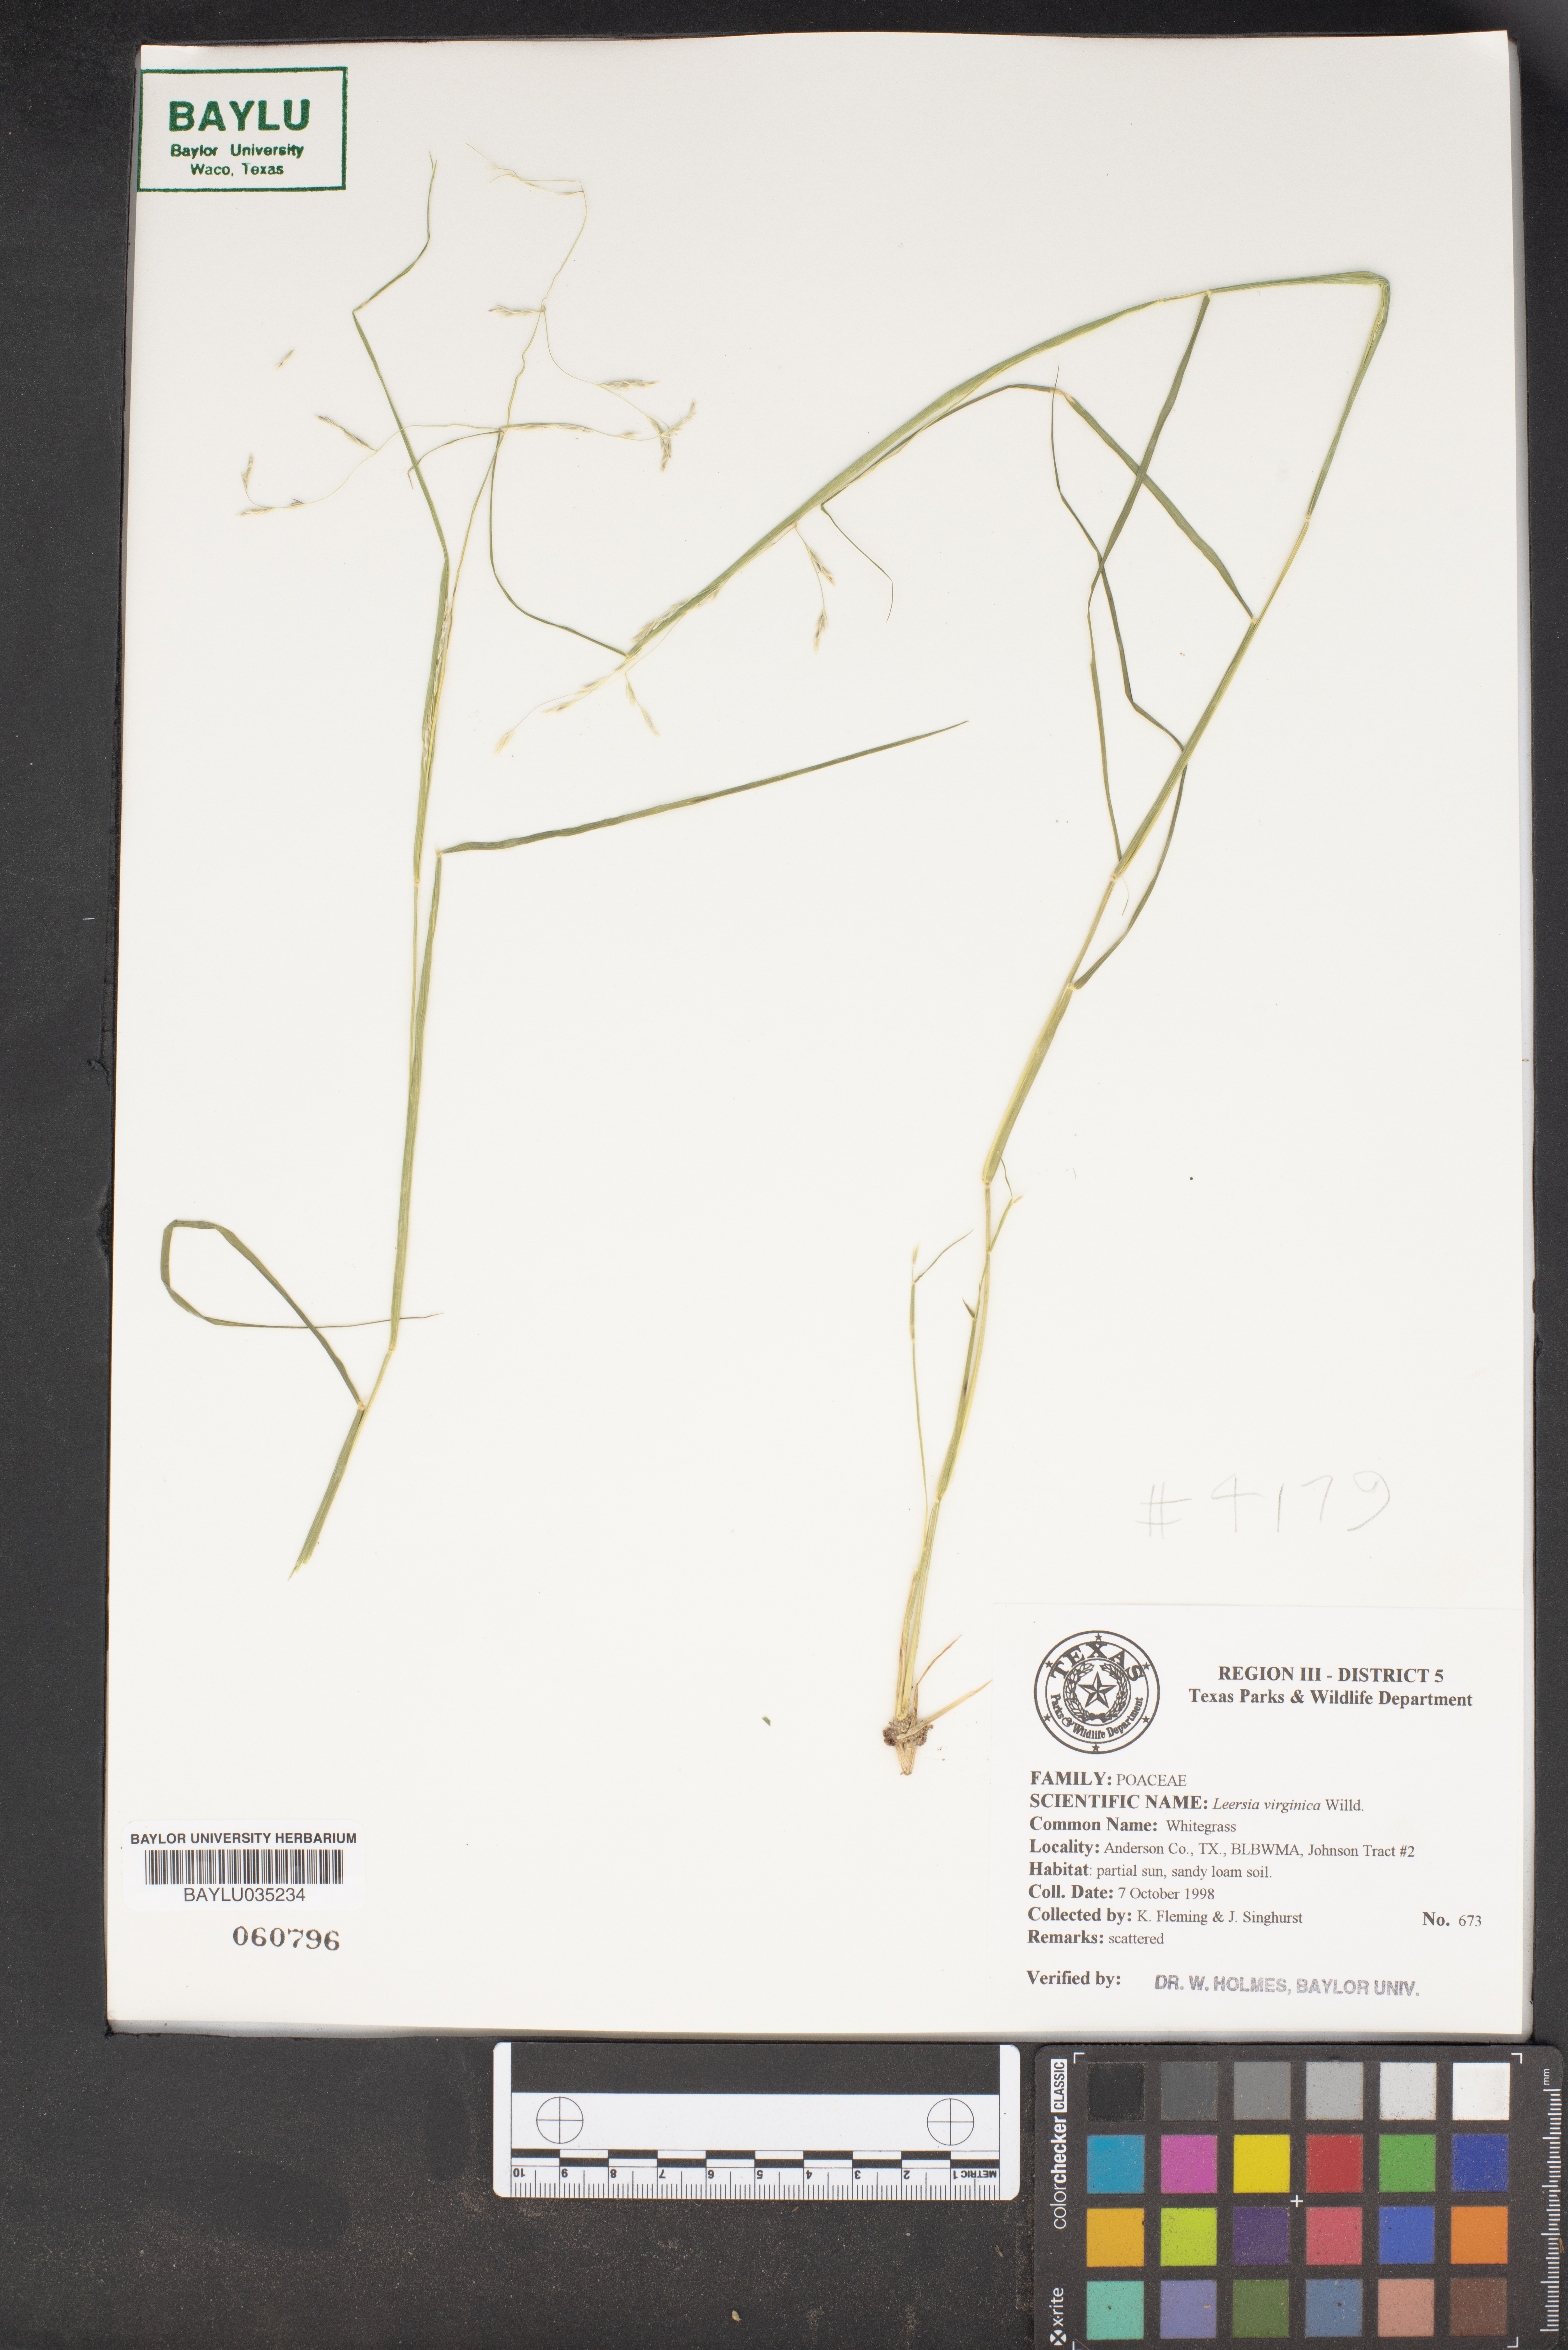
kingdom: Plantae
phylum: Tracheophyta
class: Liliopsida
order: Poales
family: Poaceae
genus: Leersia
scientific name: Leersia virginica
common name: White cutgrass
